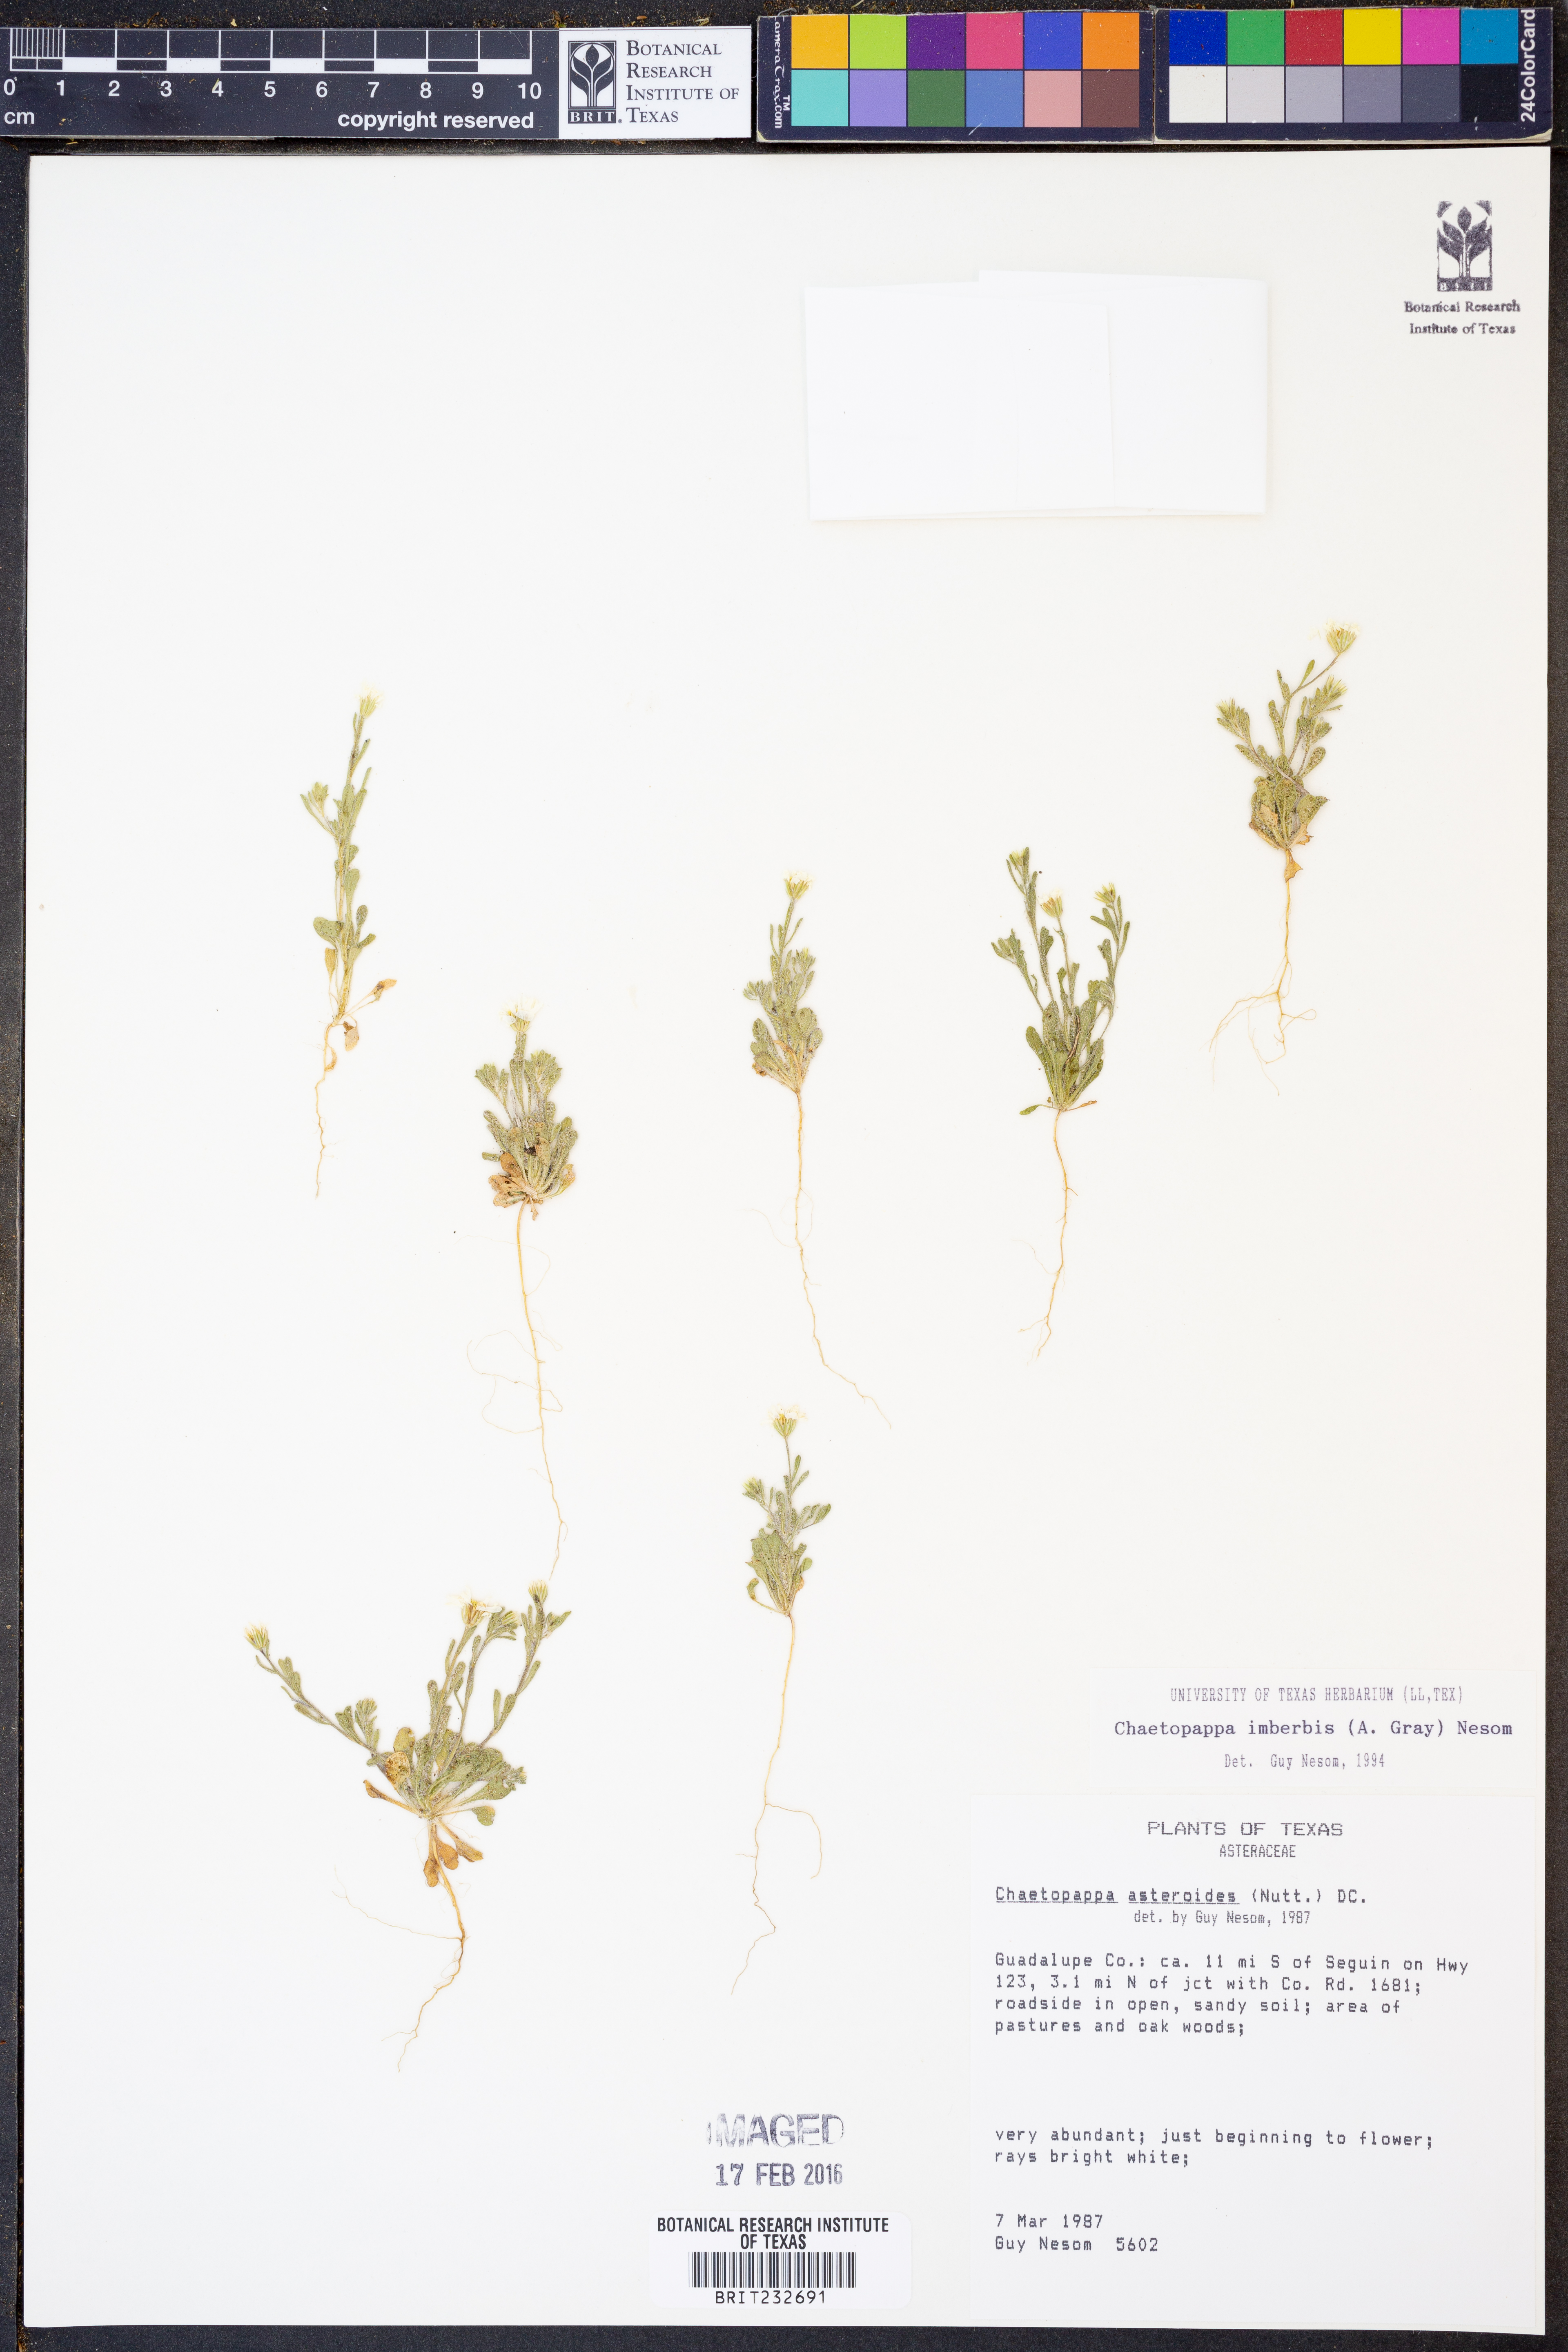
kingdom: Plantae
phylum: Tracheophyta
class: Magnoliopsida
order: Asterales
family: Asteraceae
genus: Chaetopappa
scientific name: Chaetopappa imberbis
